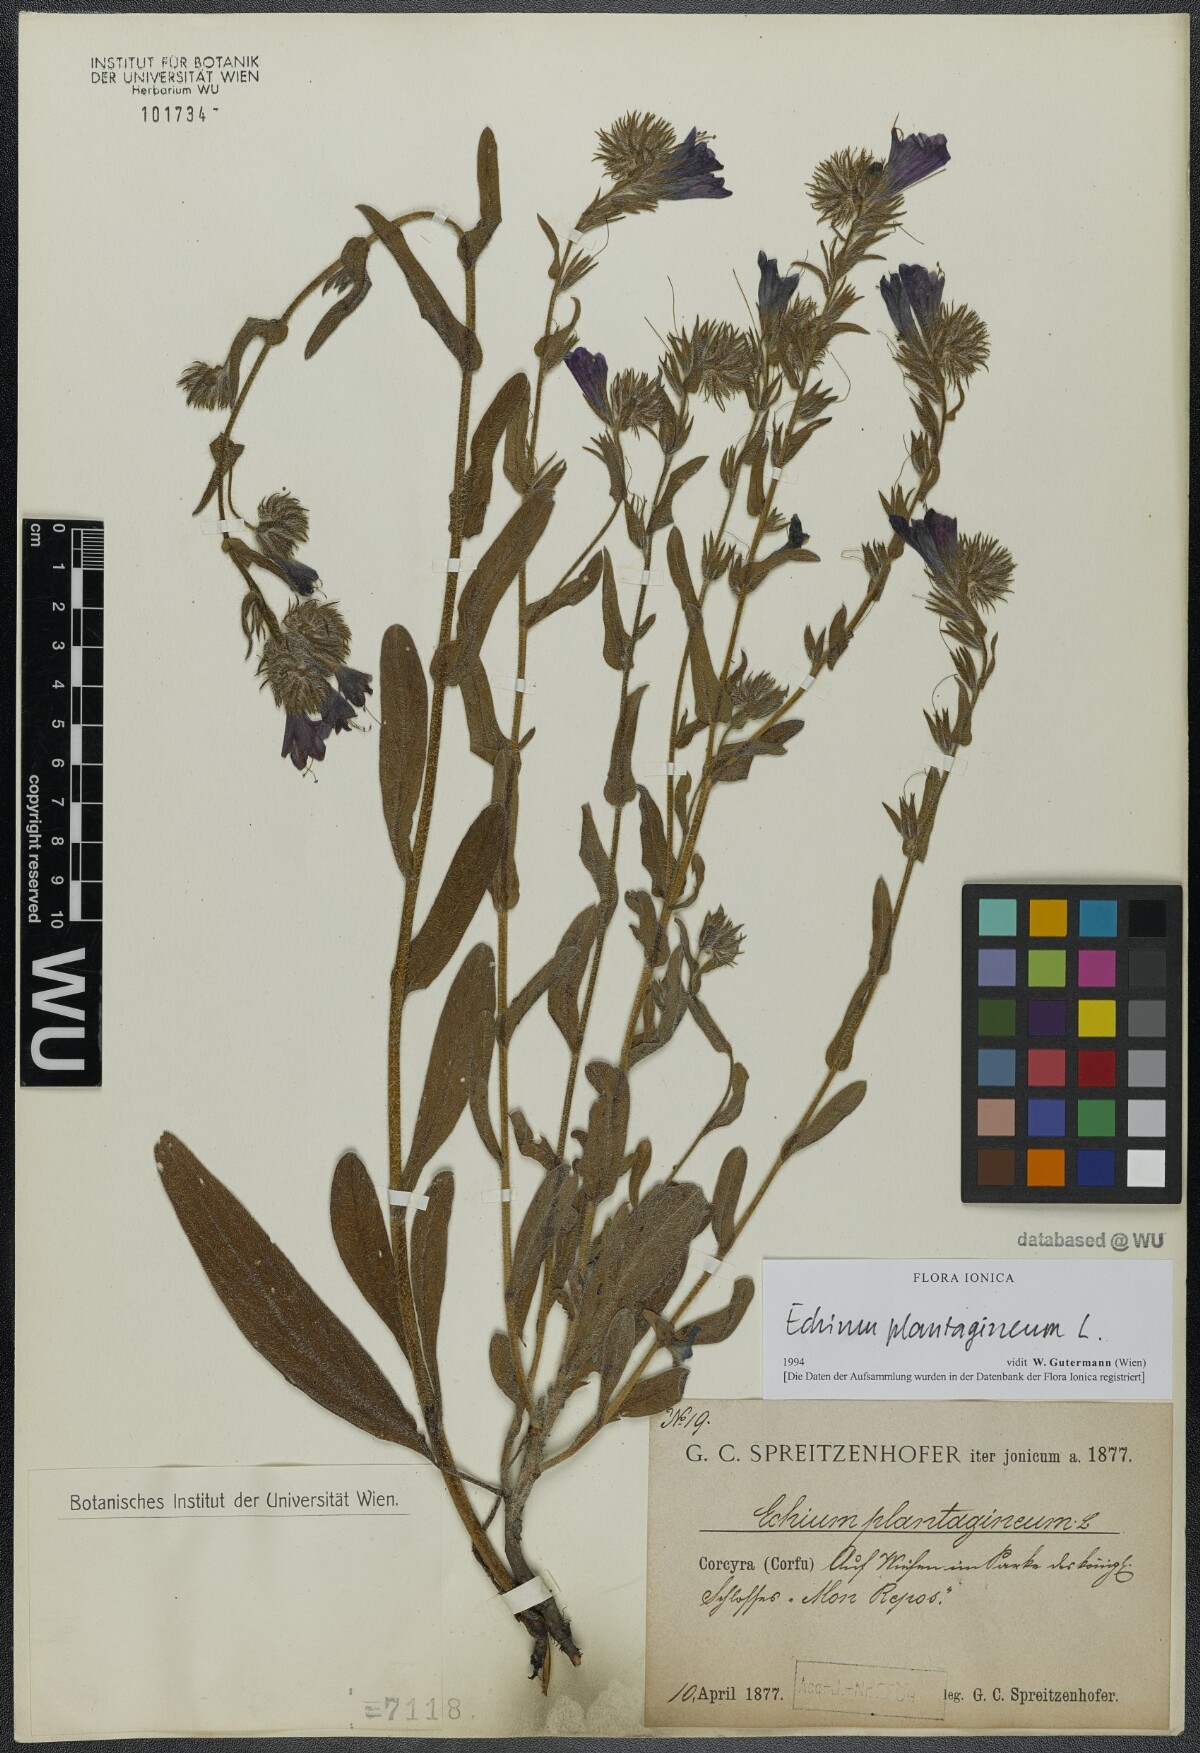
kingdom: Plantae
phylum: Tracheophyta
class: Magnoliopsida
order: Boraginales
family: Boraginaceae
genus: Echium
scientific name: Echium plantagineum
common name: Purple viper's-bugloss
